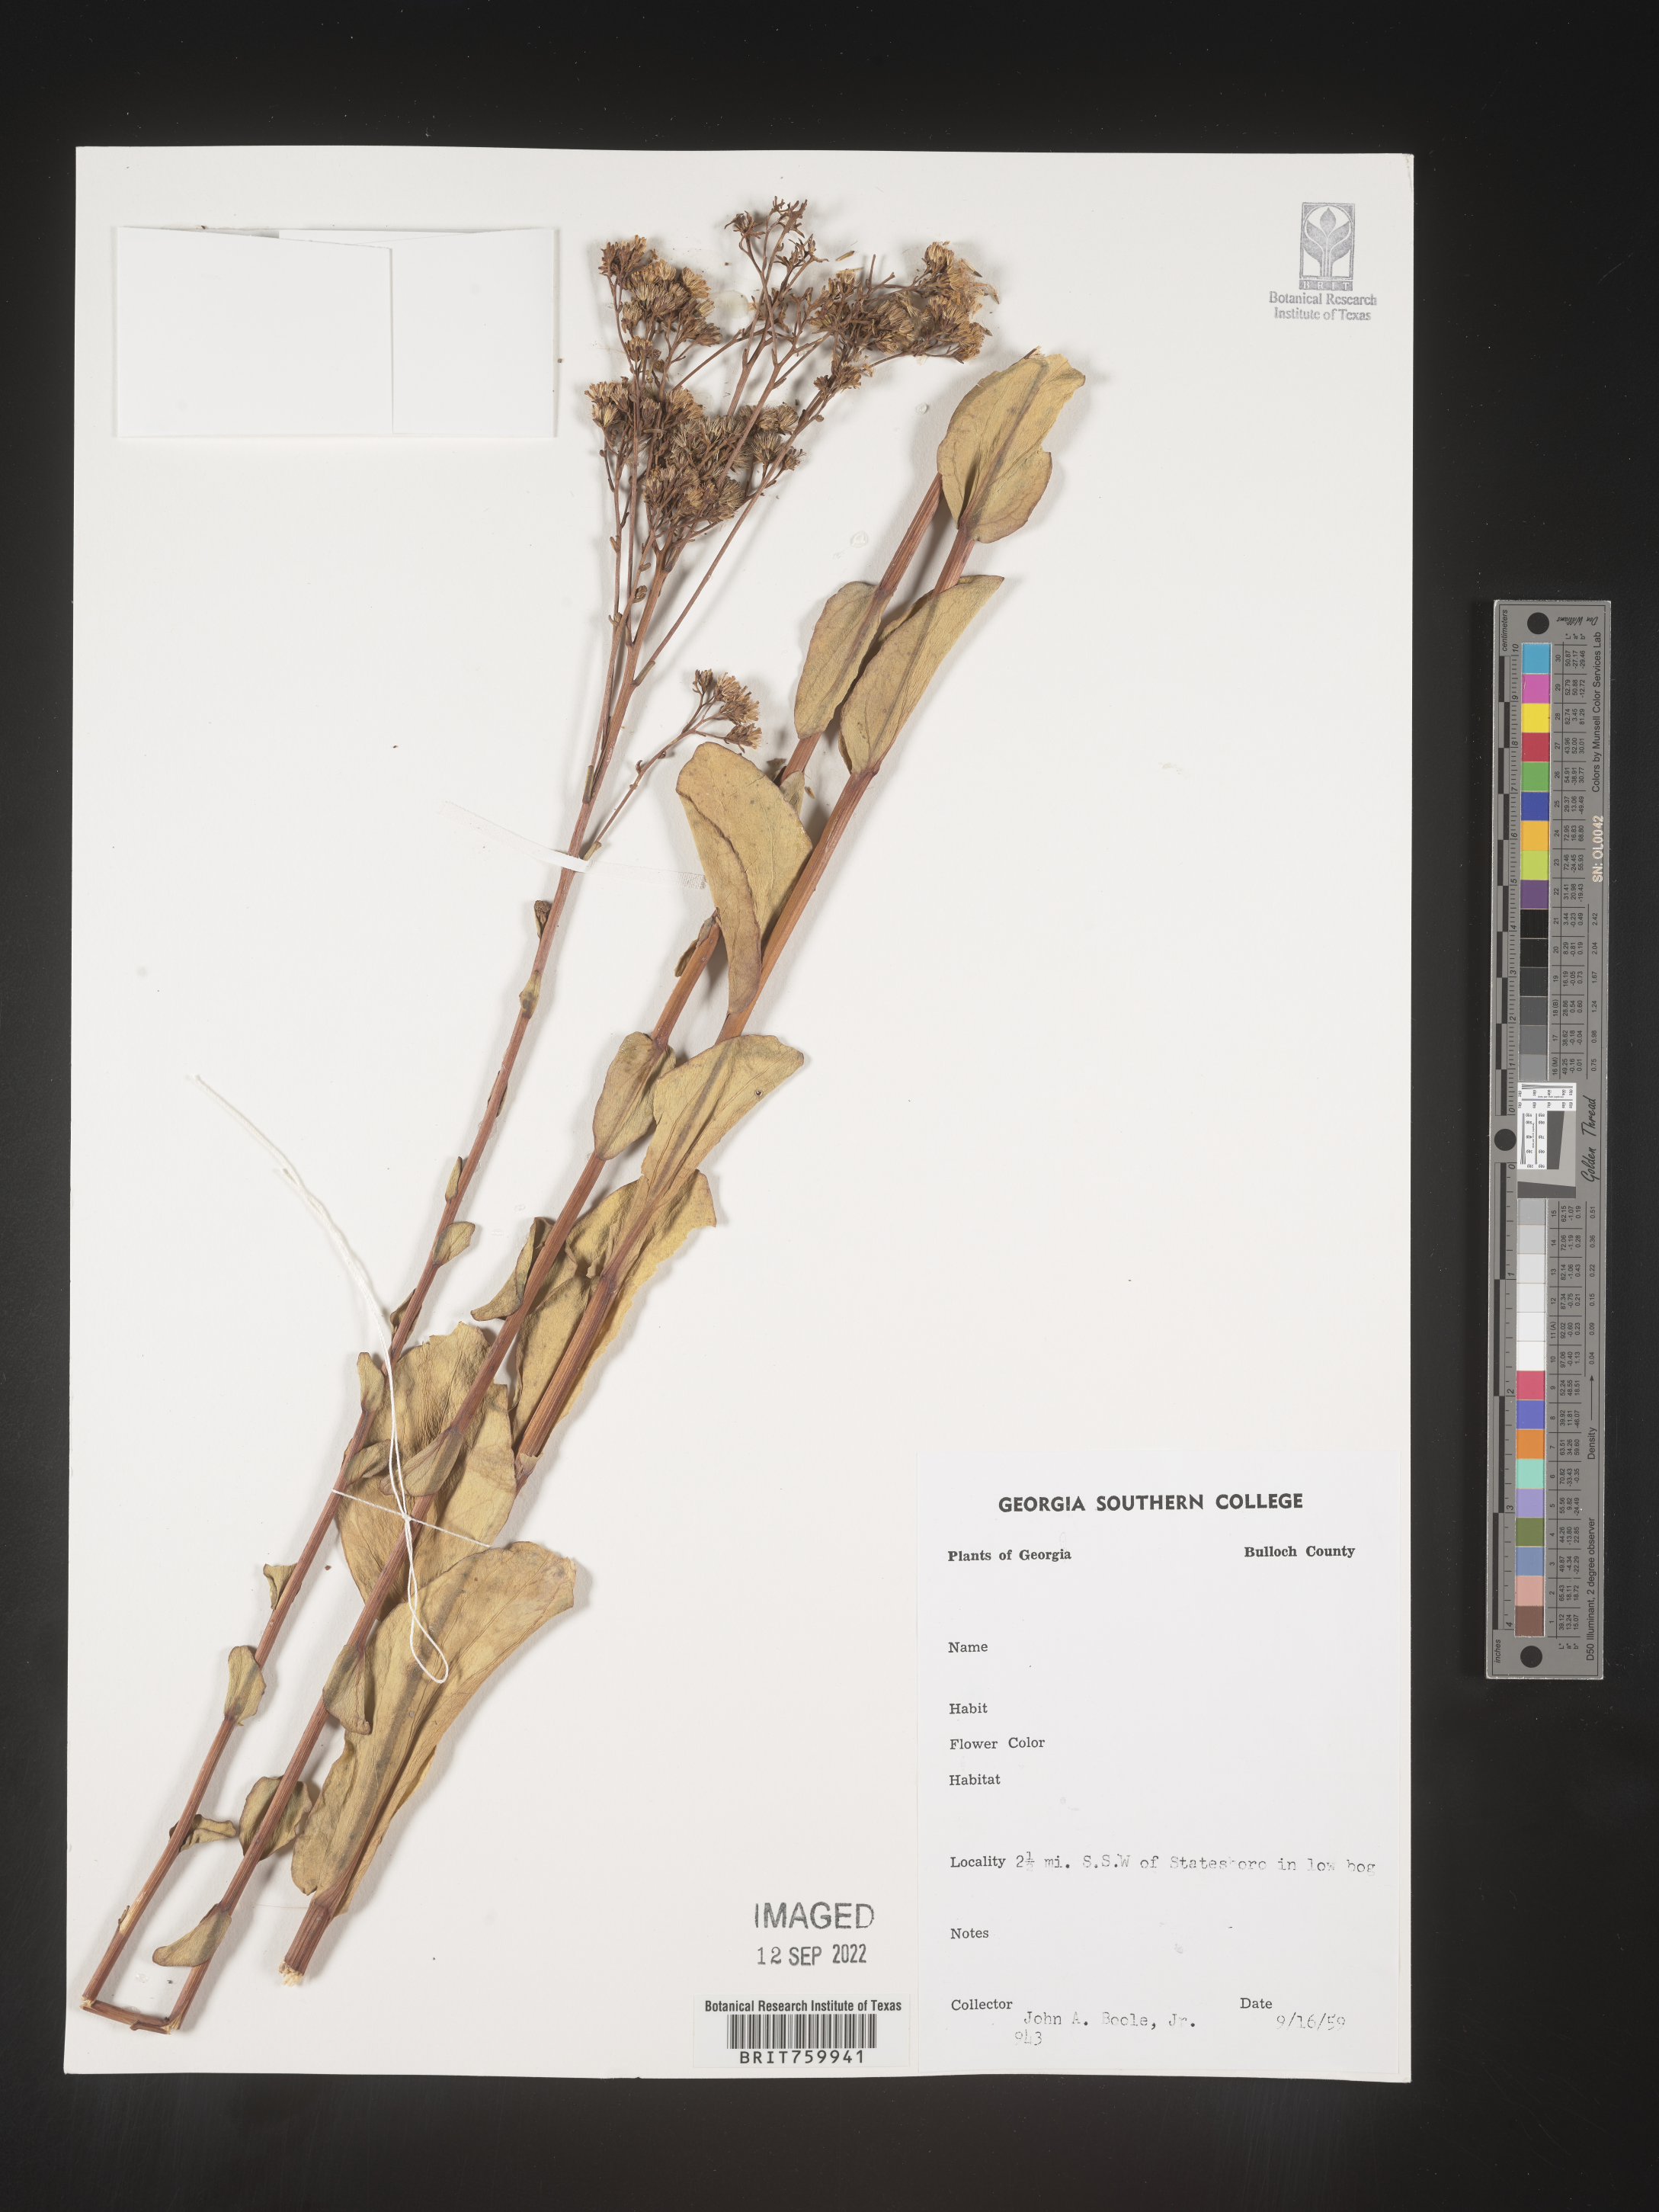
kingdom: Plantae
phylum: Tracheophyta
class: Magnoliopsida
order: Asterales
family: Asteraceae
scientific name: Asteraceae
